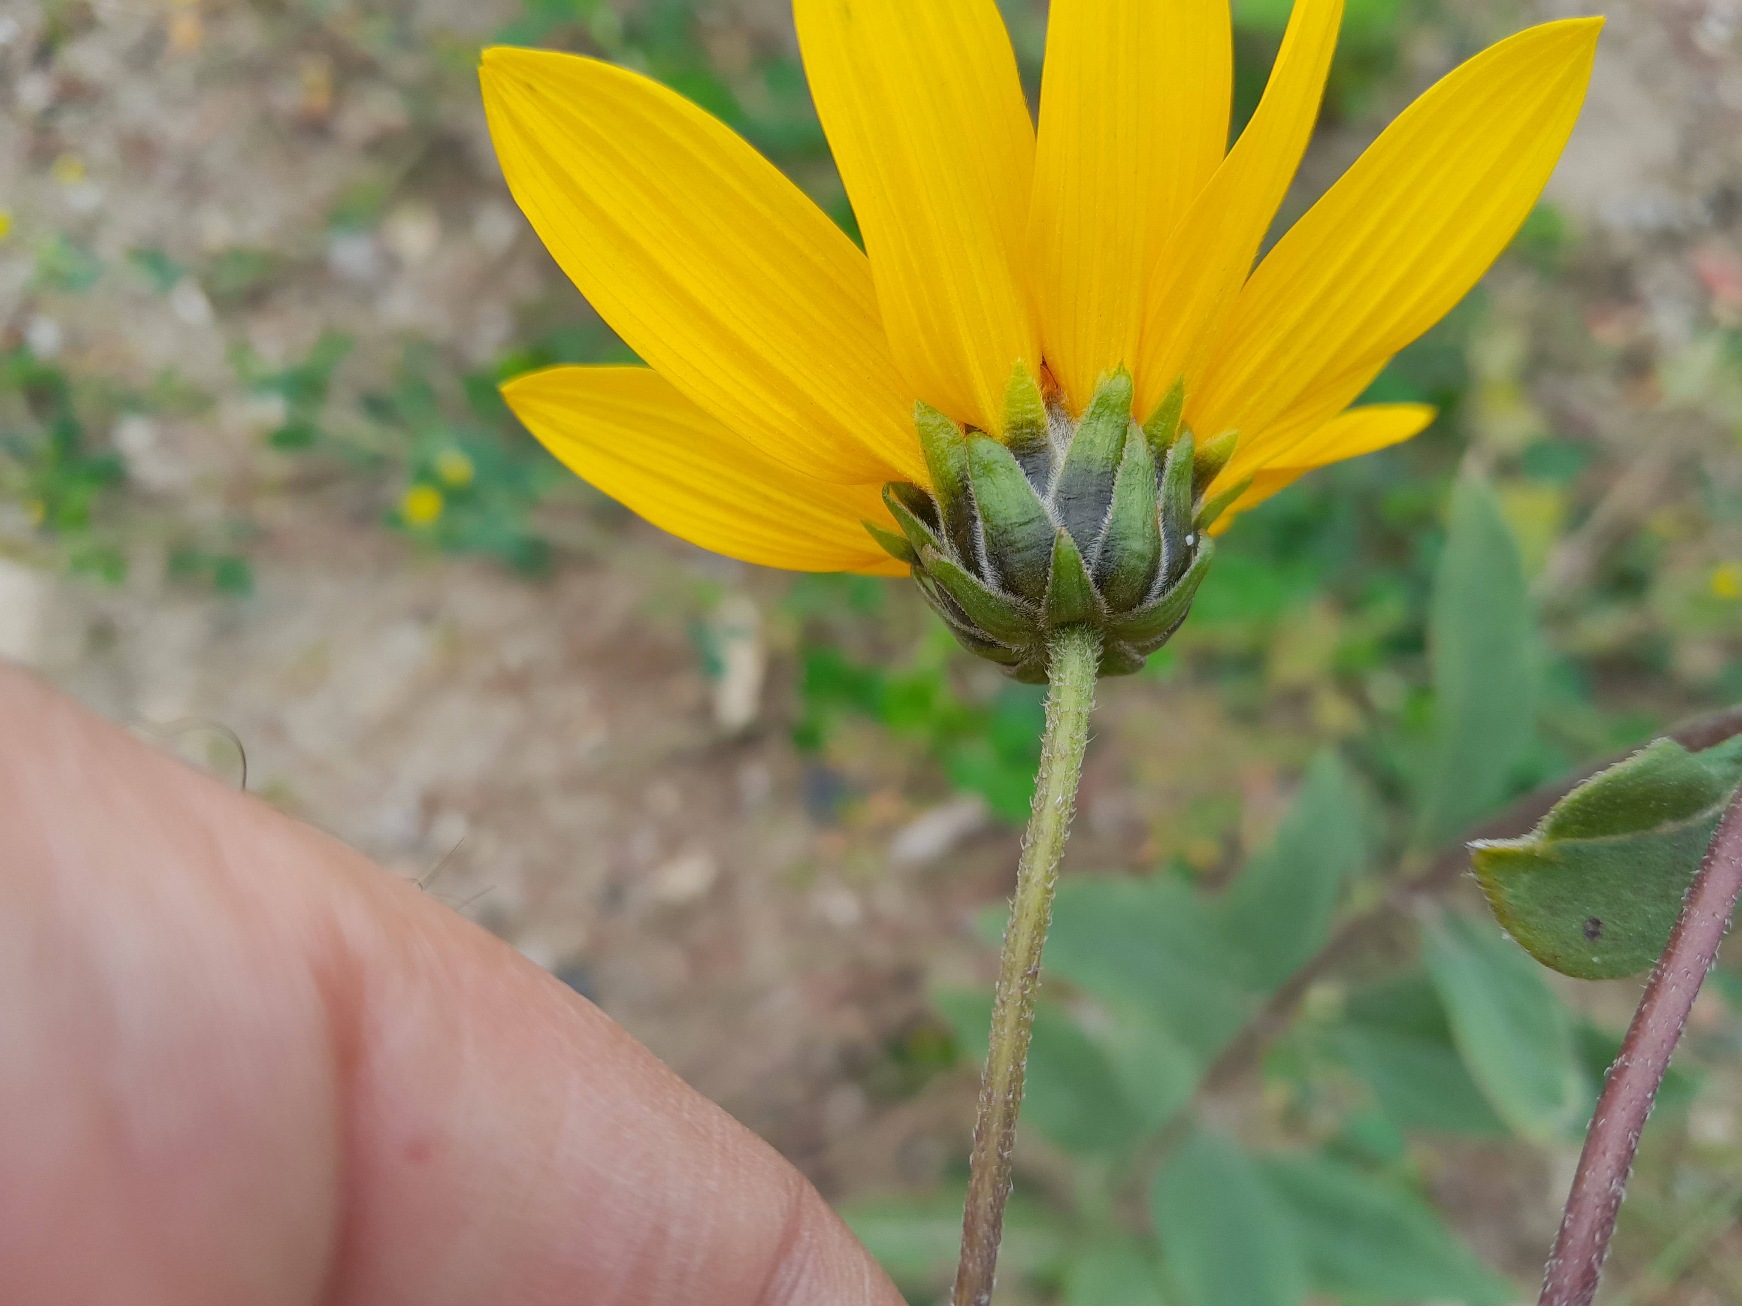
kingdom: Plantae
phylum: Tracheophyta
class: Magnoliopsida
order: Asterales
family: Asteraceae
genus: Helianthus
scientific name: Helianthus pauciflorus
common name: Staude-solsikke
